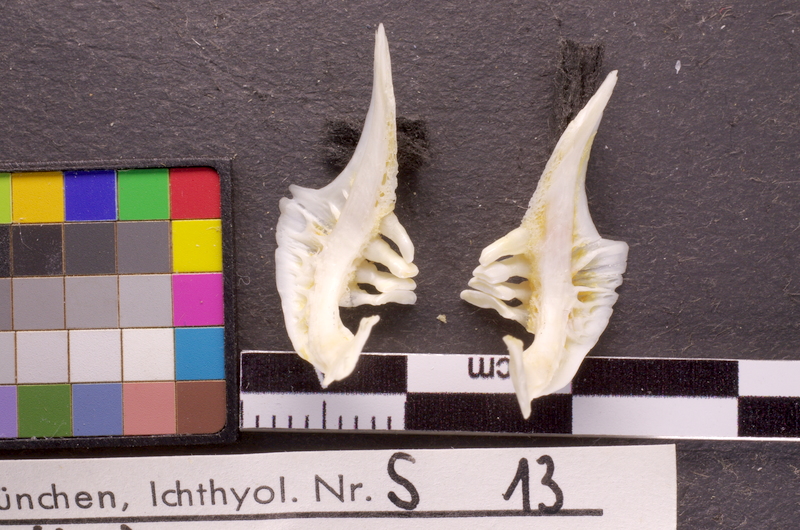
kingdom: Animalia
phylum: Chordata
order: Cypriniformes
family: Cyprinidae
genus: Carassius
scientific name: Carassius carassius
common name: Crucian carp
